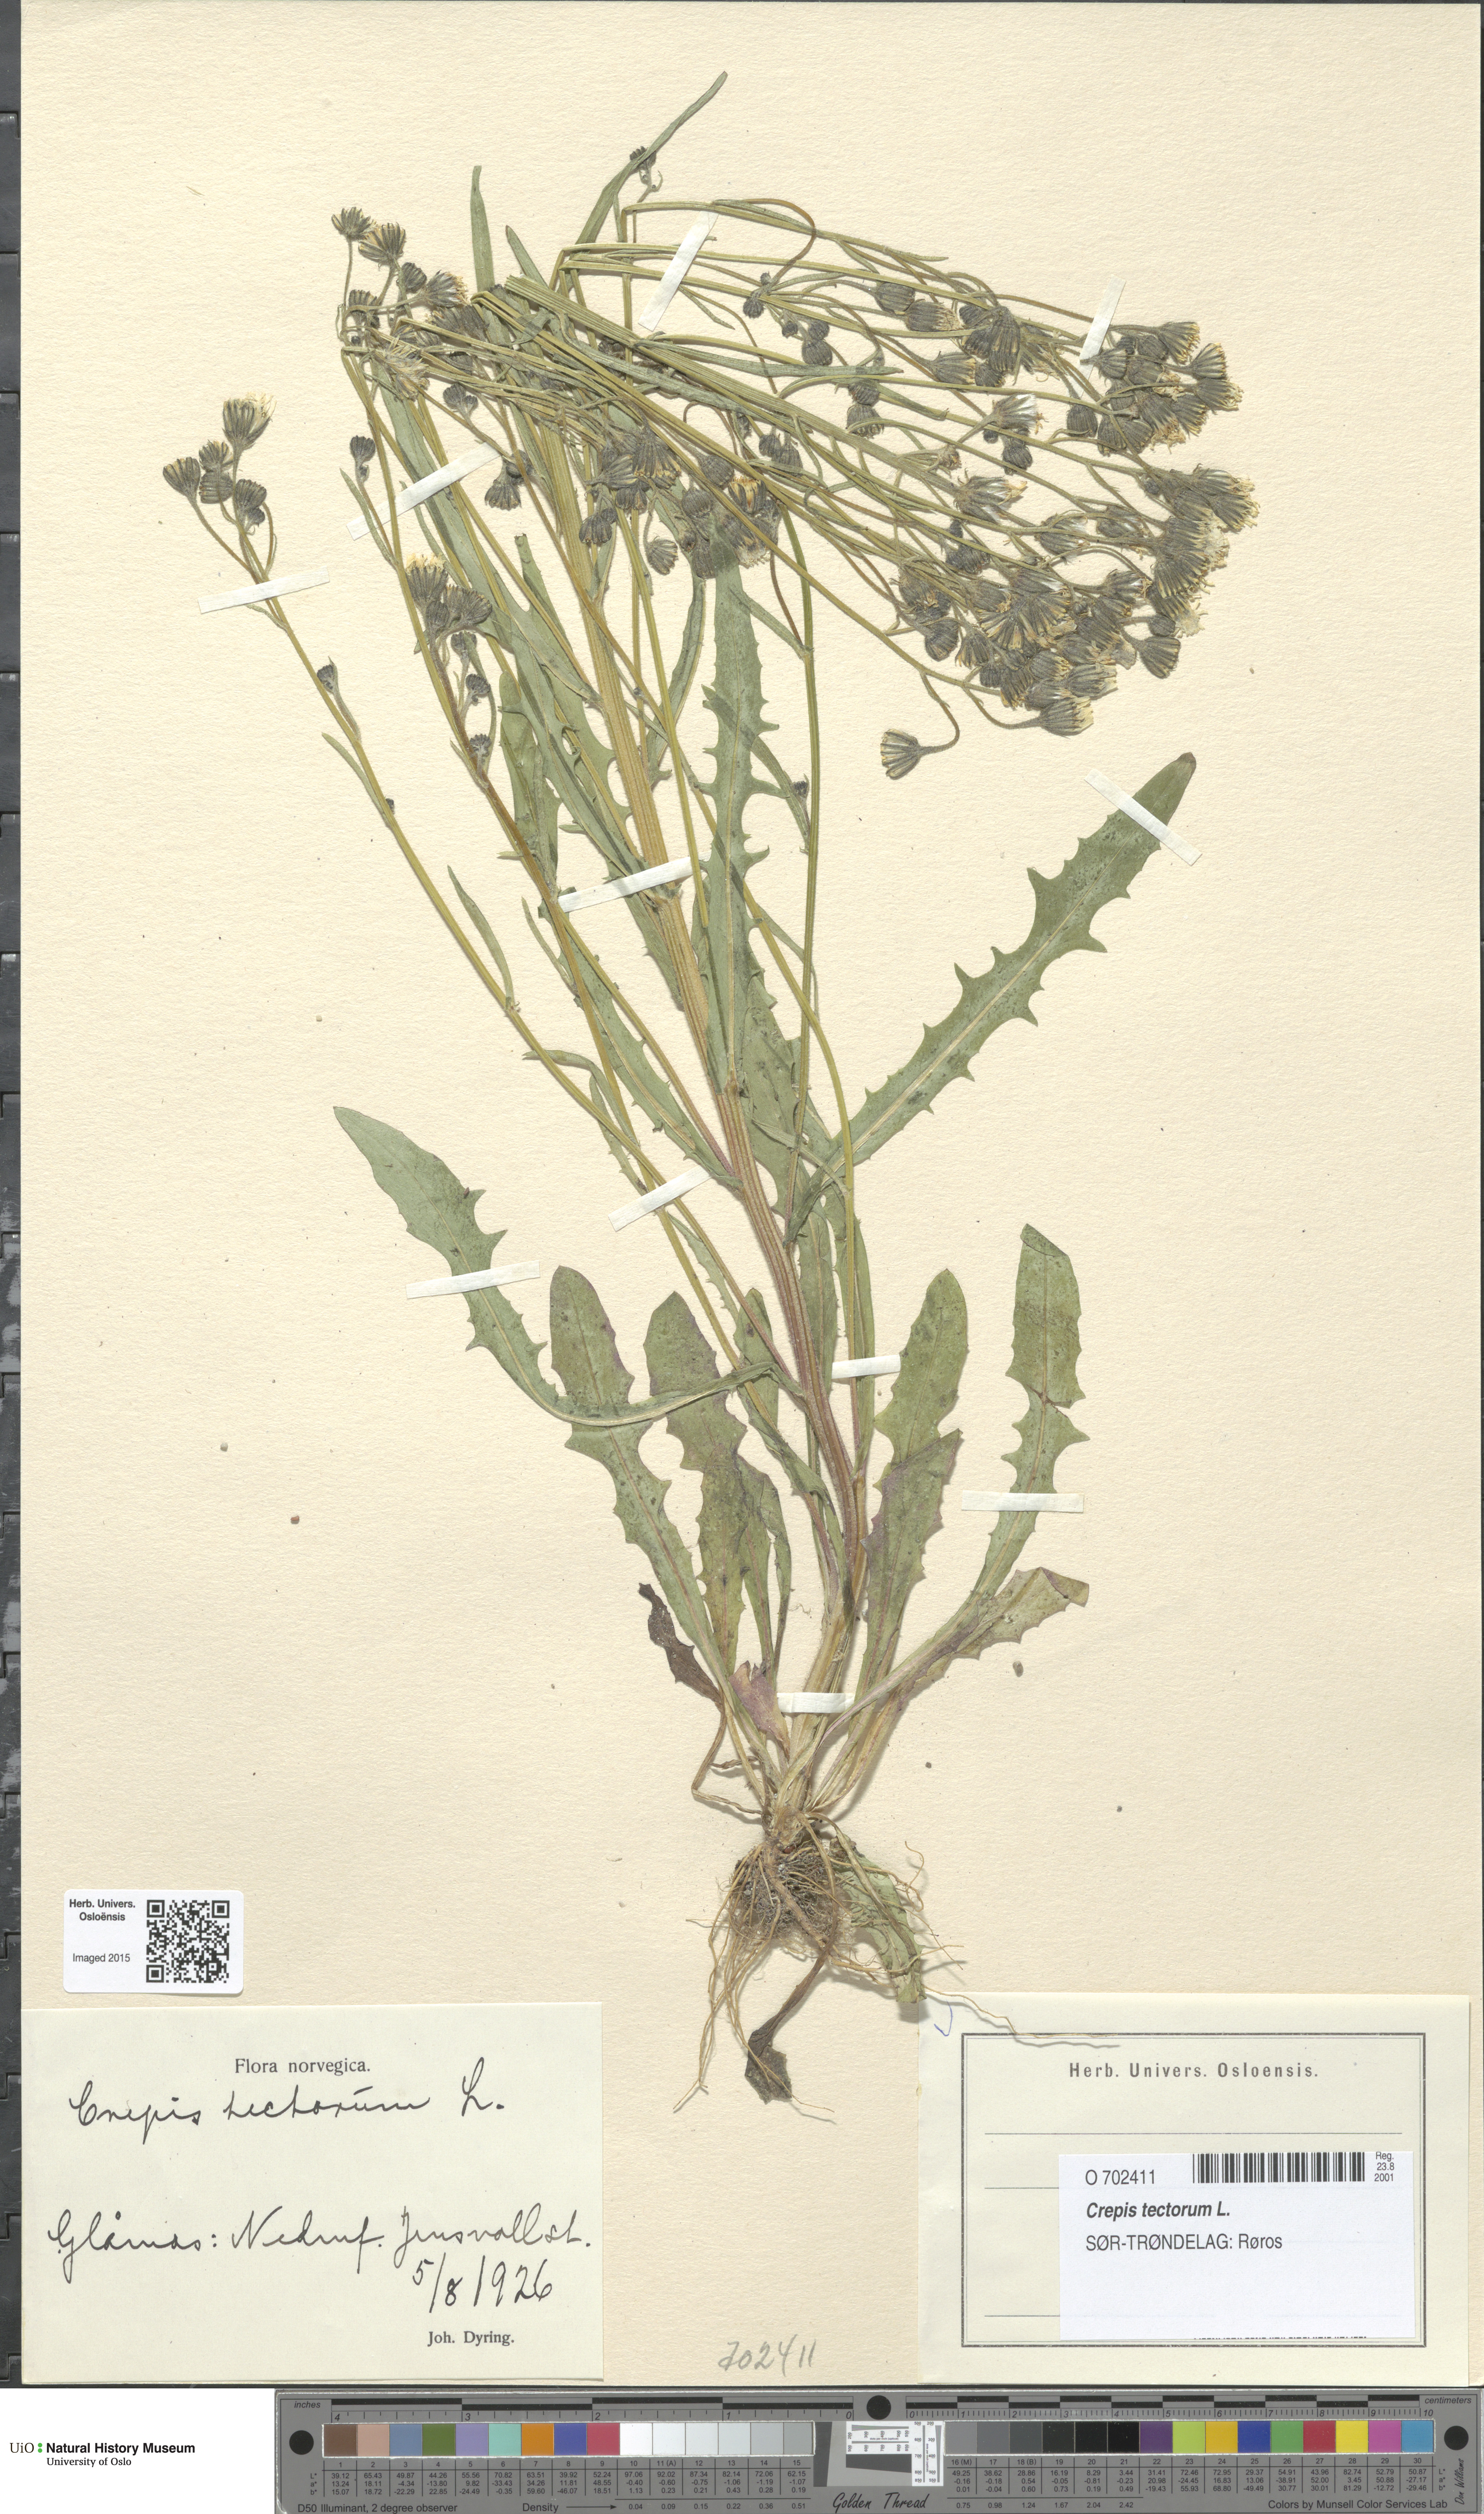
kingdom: Plantae
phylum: Tracheophyta
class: Magnoliopsida
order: Asterales
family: Asteraceae
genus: Crepis
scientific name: Crepis tectorum
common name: Narrow-leaved hawk's-beard
